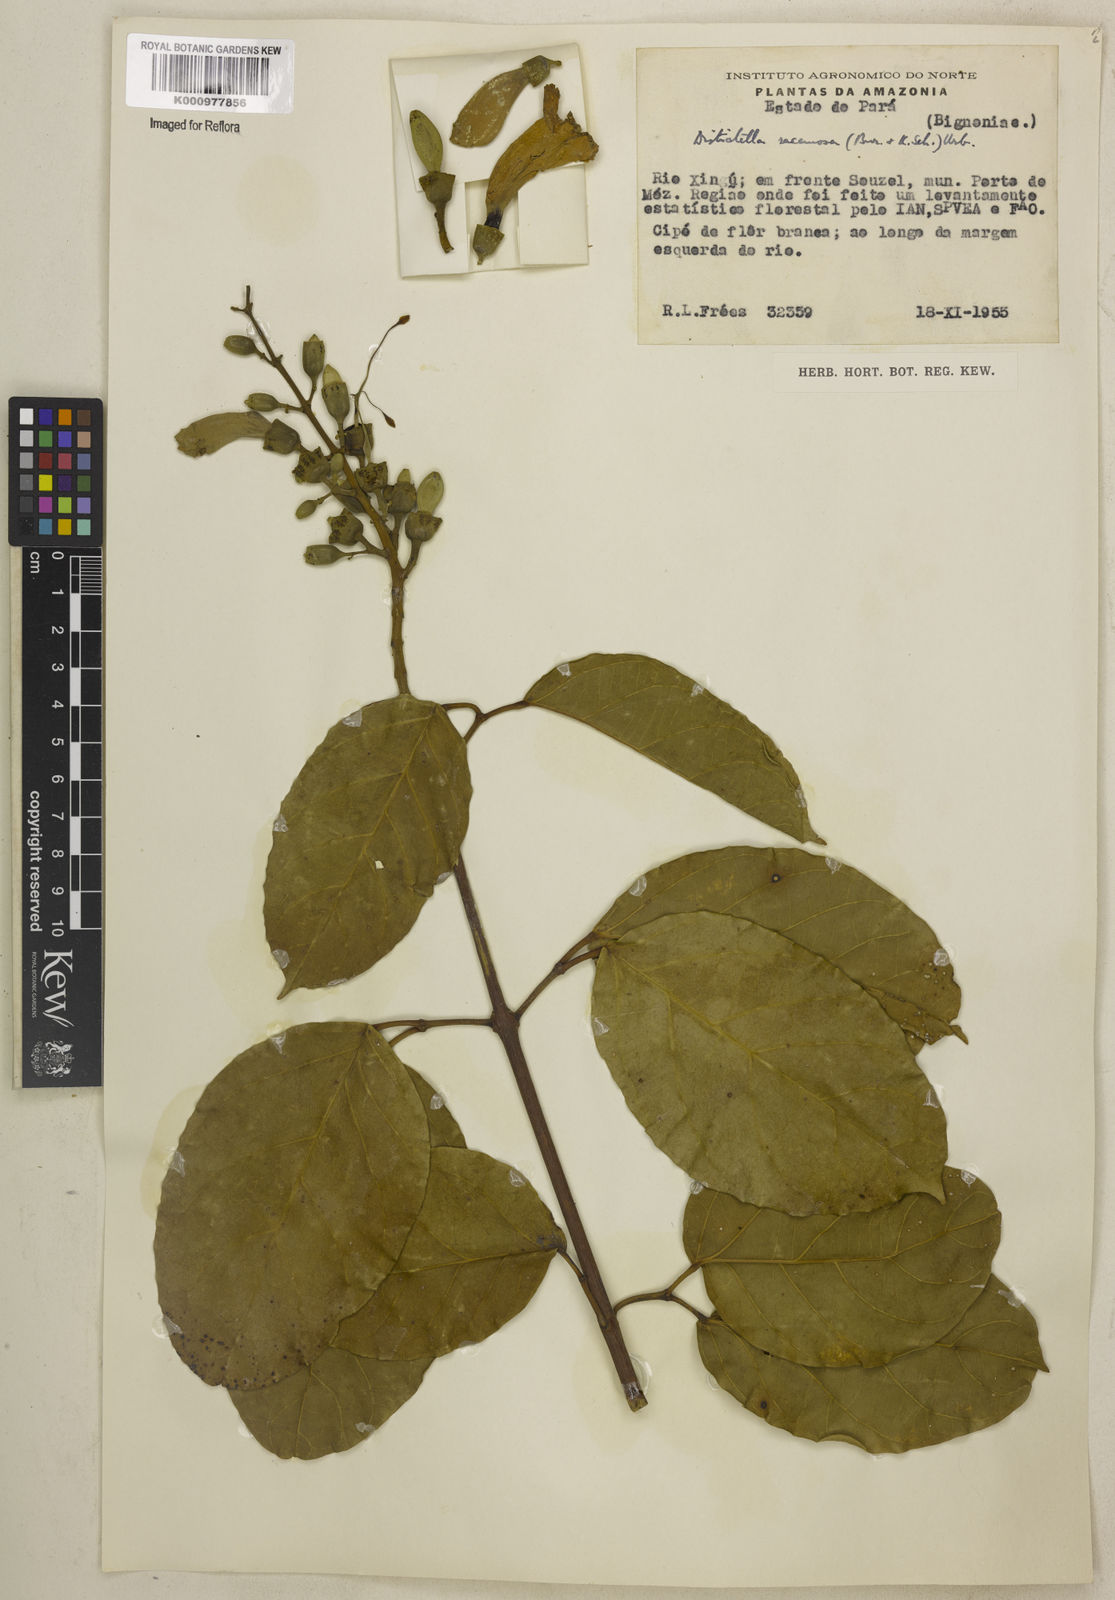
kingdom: Plantae
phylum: Tracheophyta
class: Magnoliopsida
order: Lamiales
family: Bignoniaceae
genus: Amphilophium
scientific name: Amphilophium racemosum
